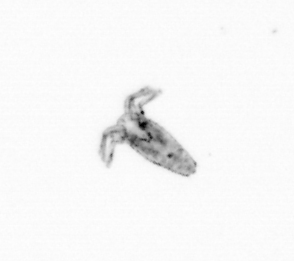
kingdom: Animalia
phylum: Arthropoda
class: Copepoda
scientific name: Copepoda
